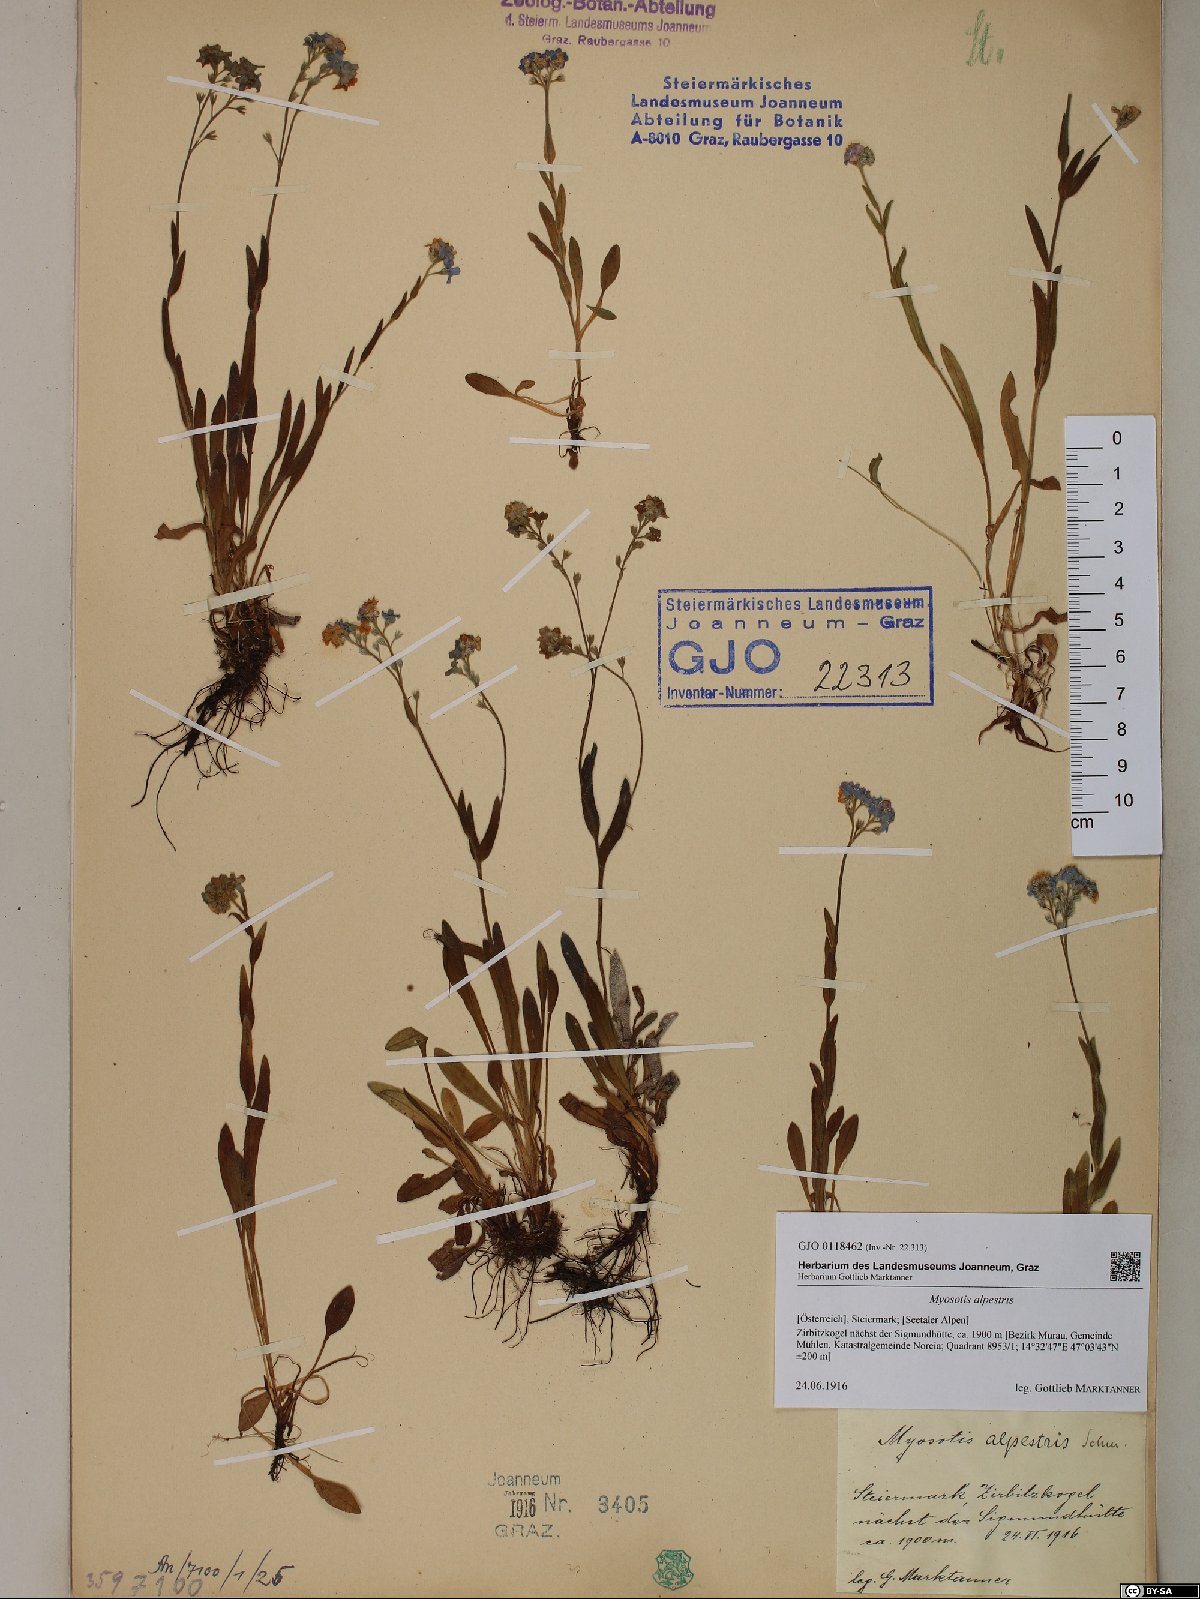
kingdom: Plantae
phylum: Tracheophyta
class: Magnoliopsida
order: Boraginales
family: Boraginaceae
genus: Myosotis
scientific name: Myosotis alpestris
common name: Alpine forget-me-not
